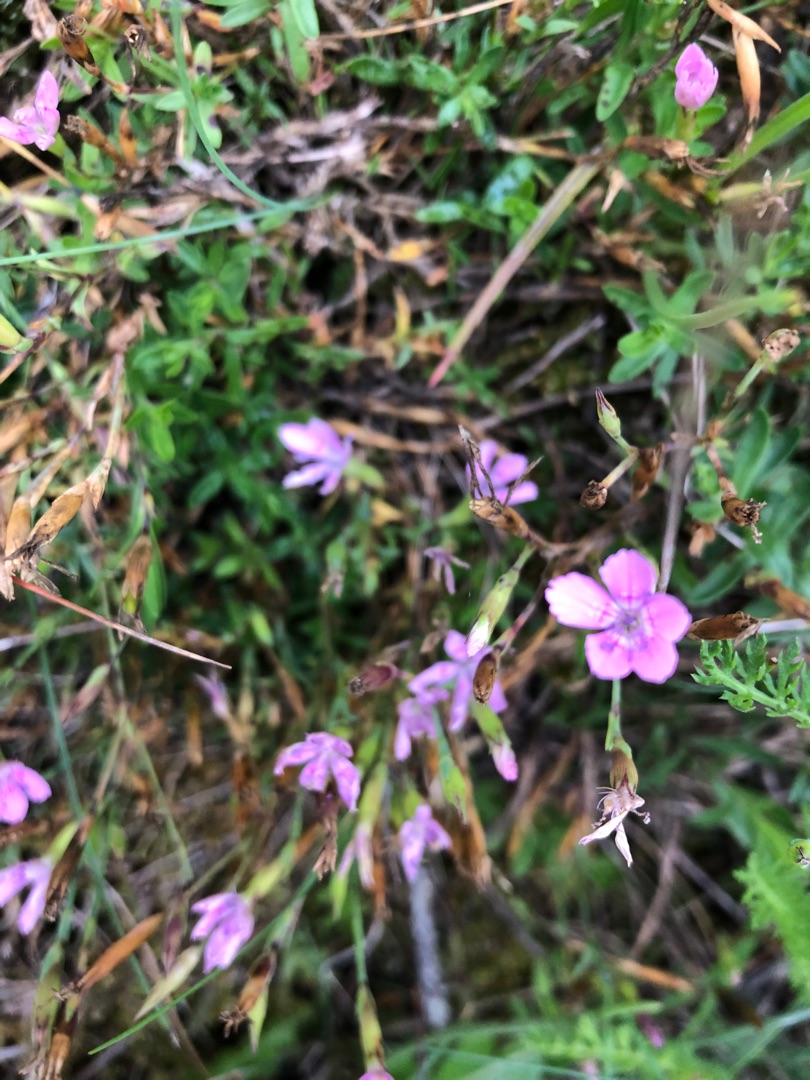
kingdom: Plantae
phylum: Tracheophyta
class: Magnoliopsida
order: Caryophyllales
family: Caryophyllaceae
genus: Dianthus
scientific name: Dianthus deltoides
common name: Bakke-nellike
